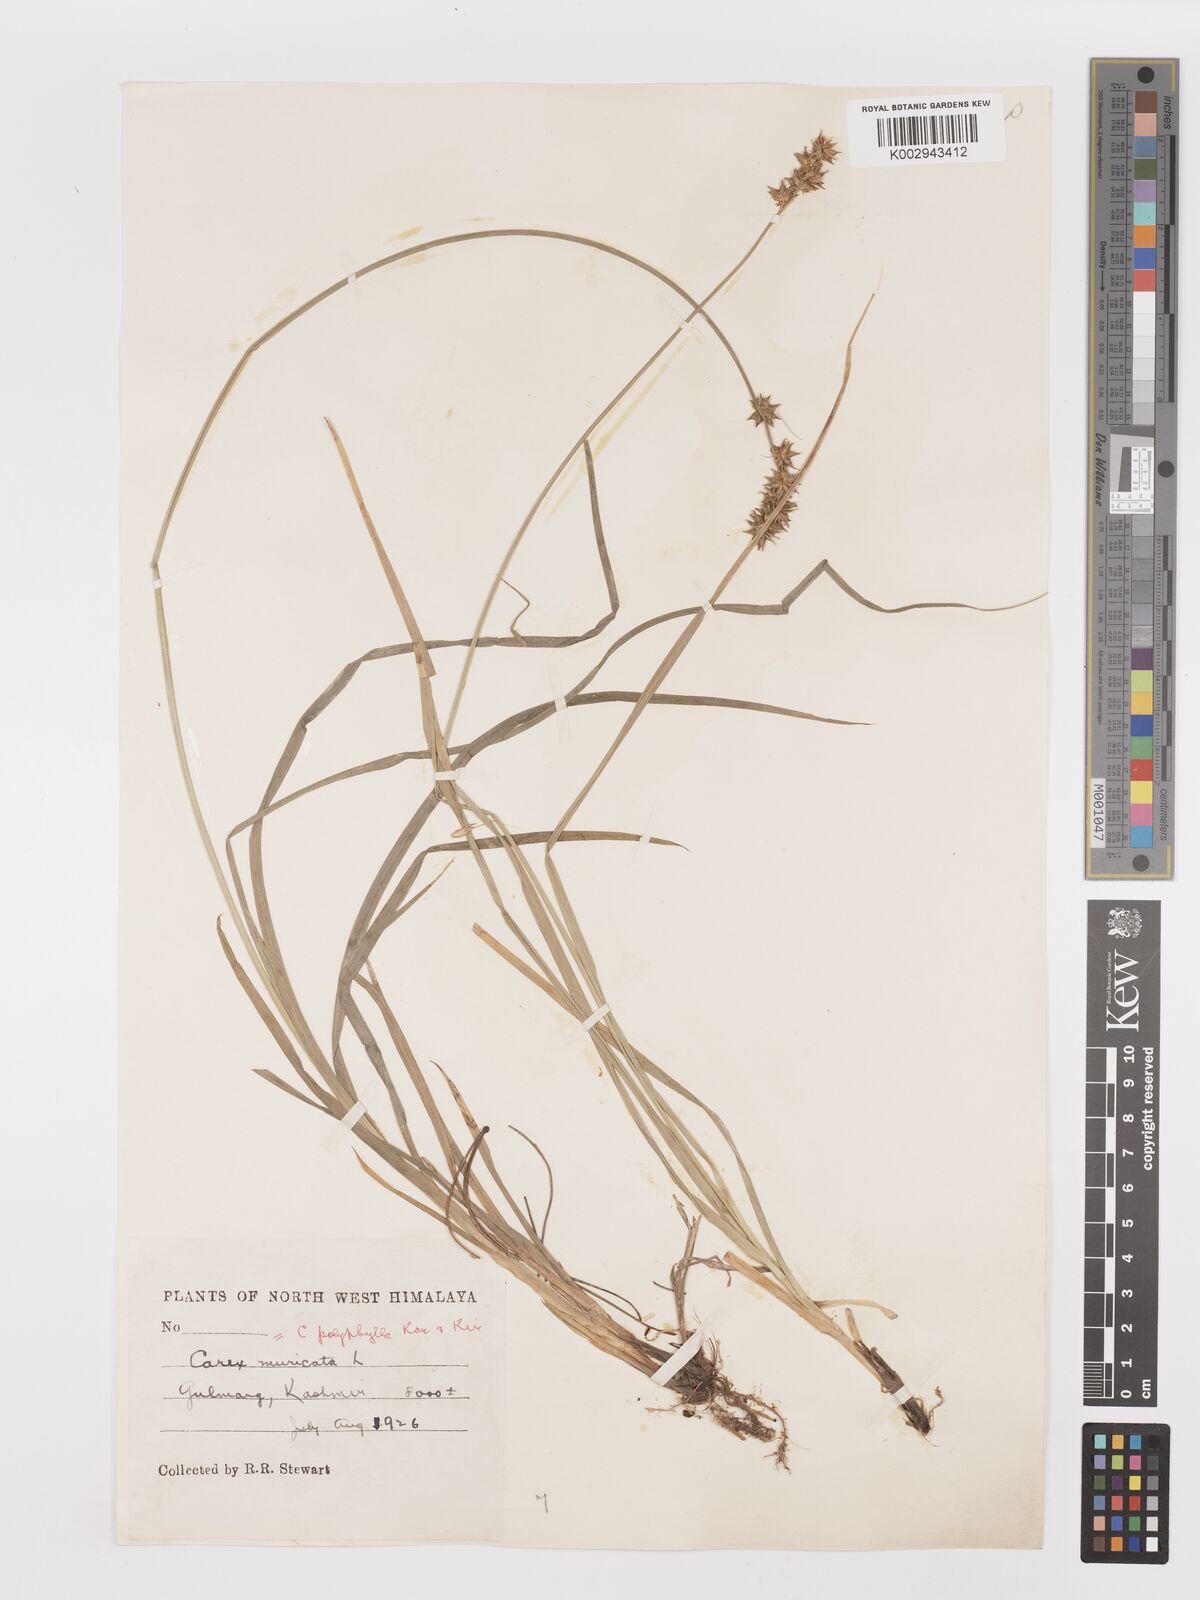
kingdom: Plantae
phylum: Tracheophyta
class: Liliopsida
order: Poales
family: Cyperaceae
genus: Carex
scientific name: Carex polyphylla
